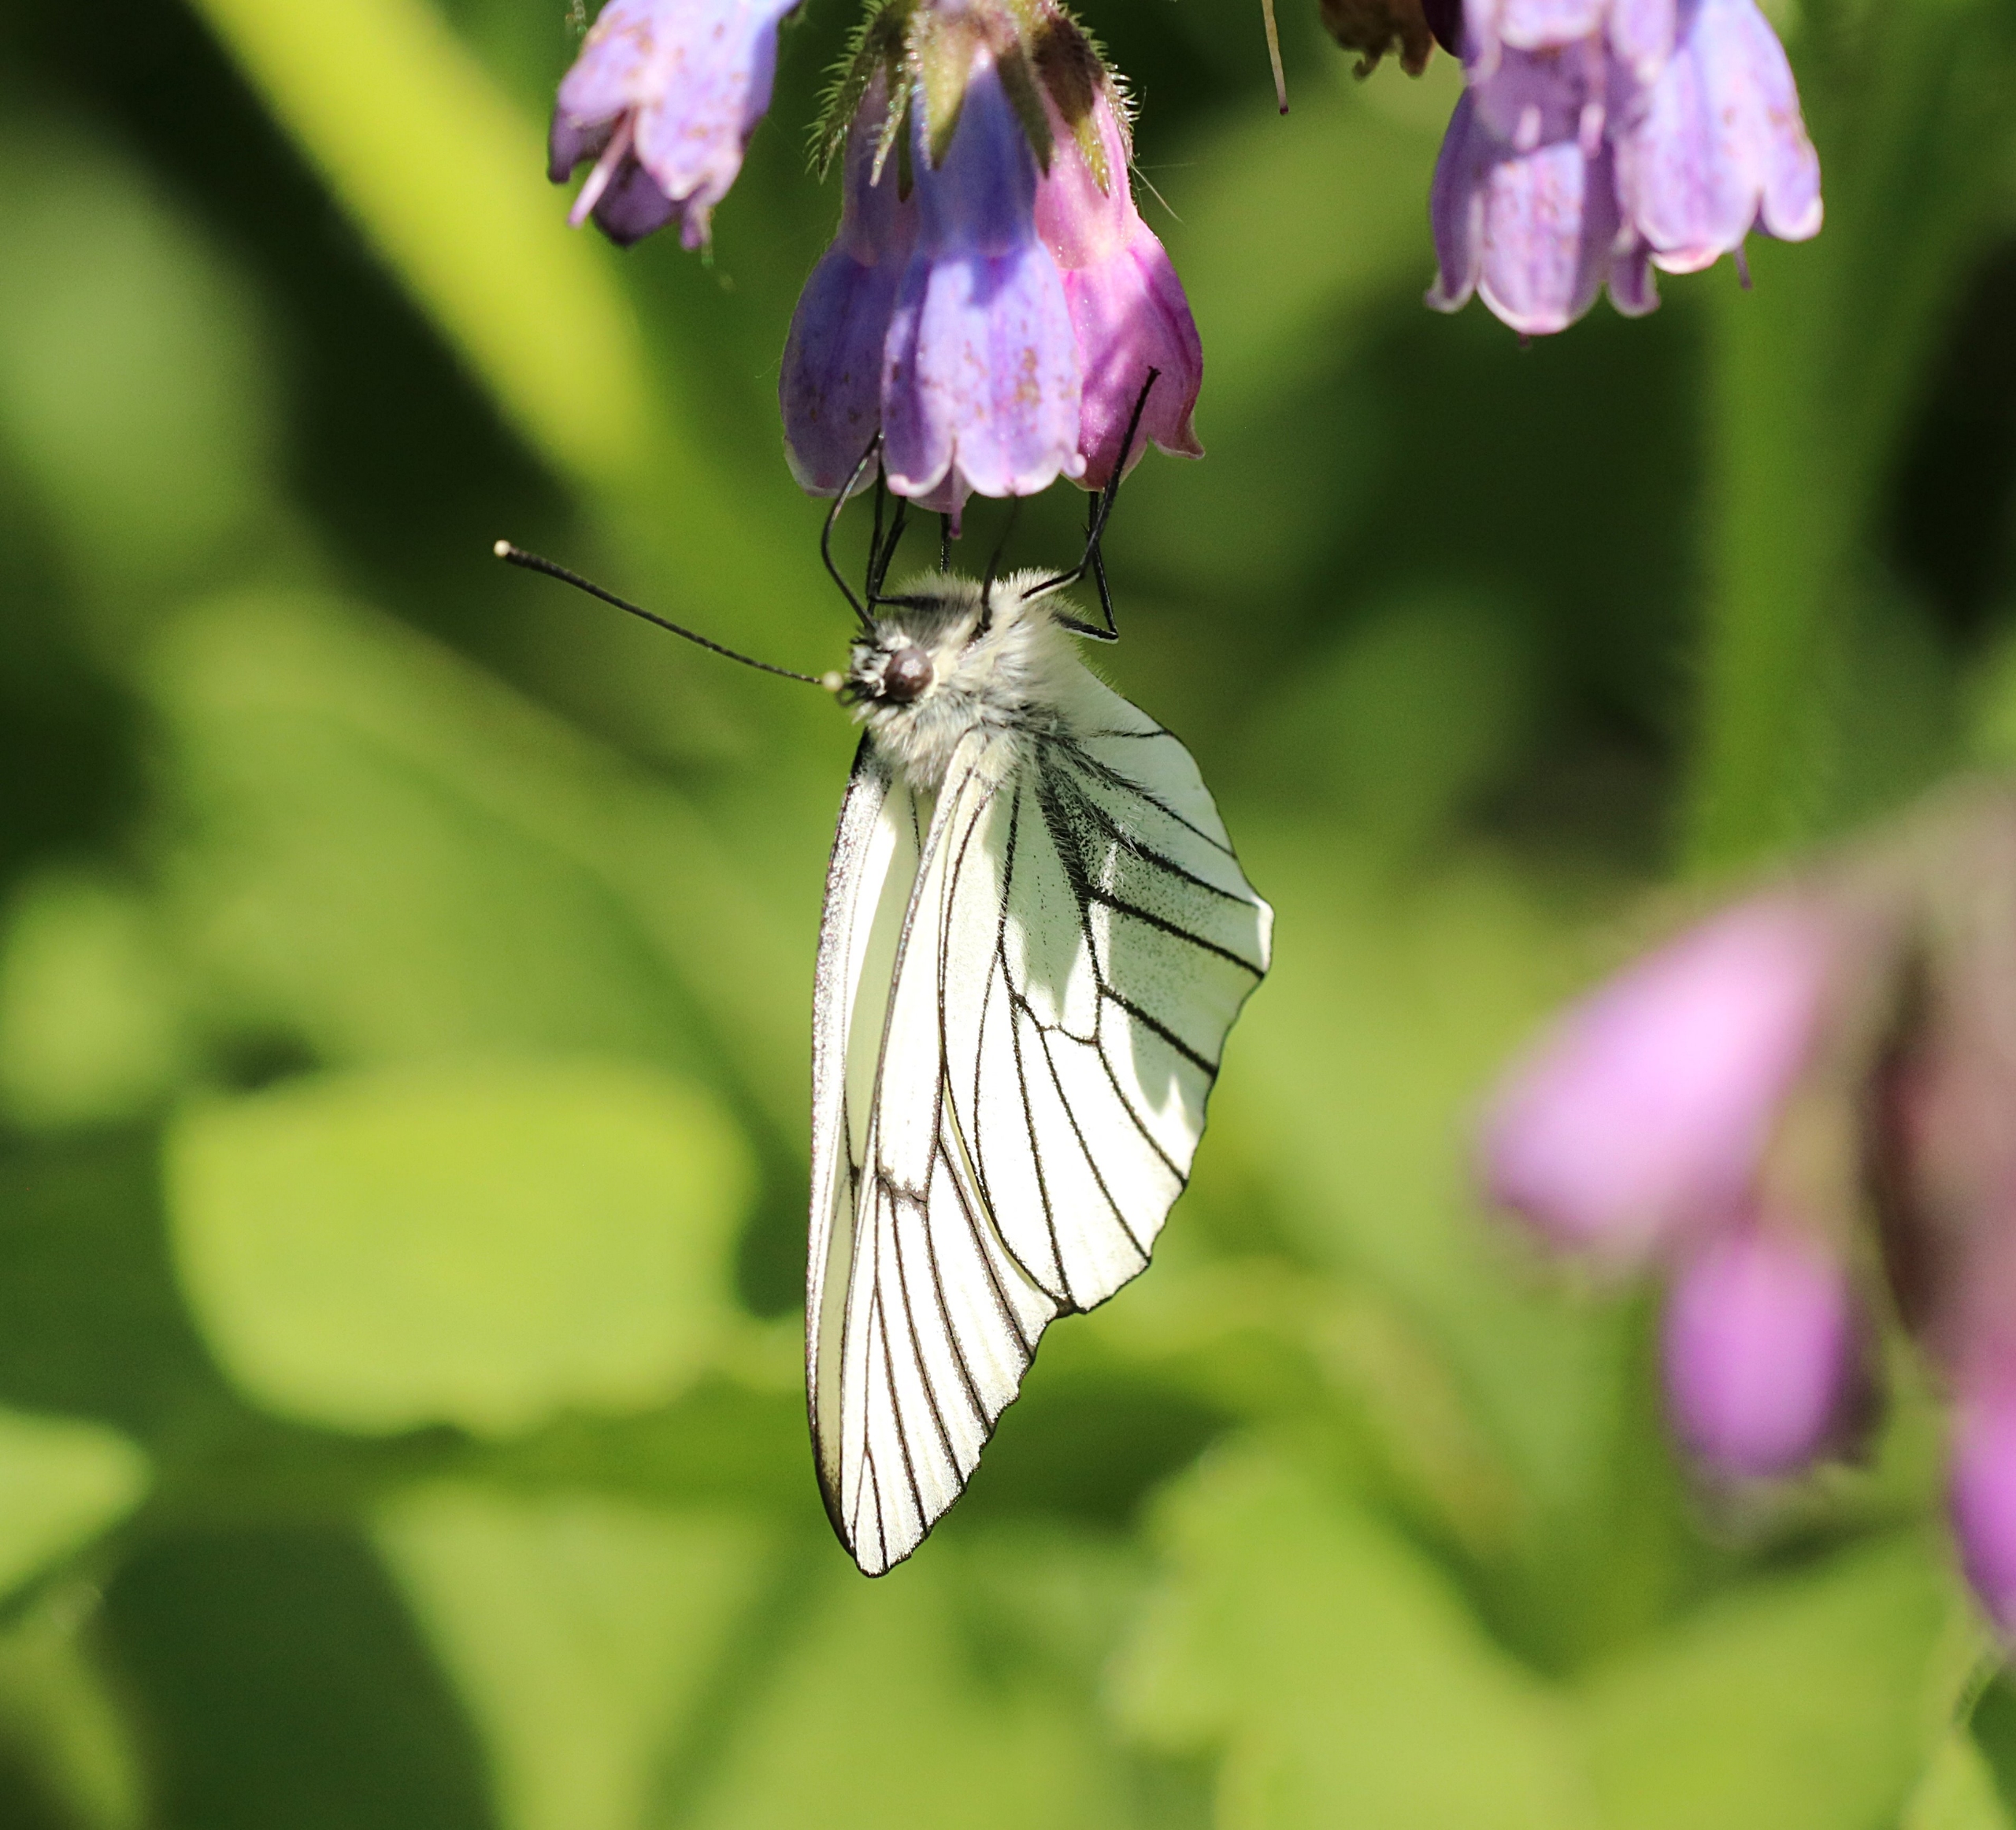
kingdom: Animalia
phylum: Arthropoda
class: Insecta
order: Lepidoptera
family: Pieridae
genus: Aporia
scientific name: Aporia crataegi
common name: Sortåret hvidvinge
